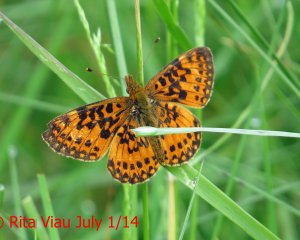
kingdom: Animalia
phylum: Arthropoda
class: Insecta
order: Lepidoptera
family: Nymphalidae
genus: Boloria
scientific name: Boloria selene
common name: Silver-bordered Fritillary
